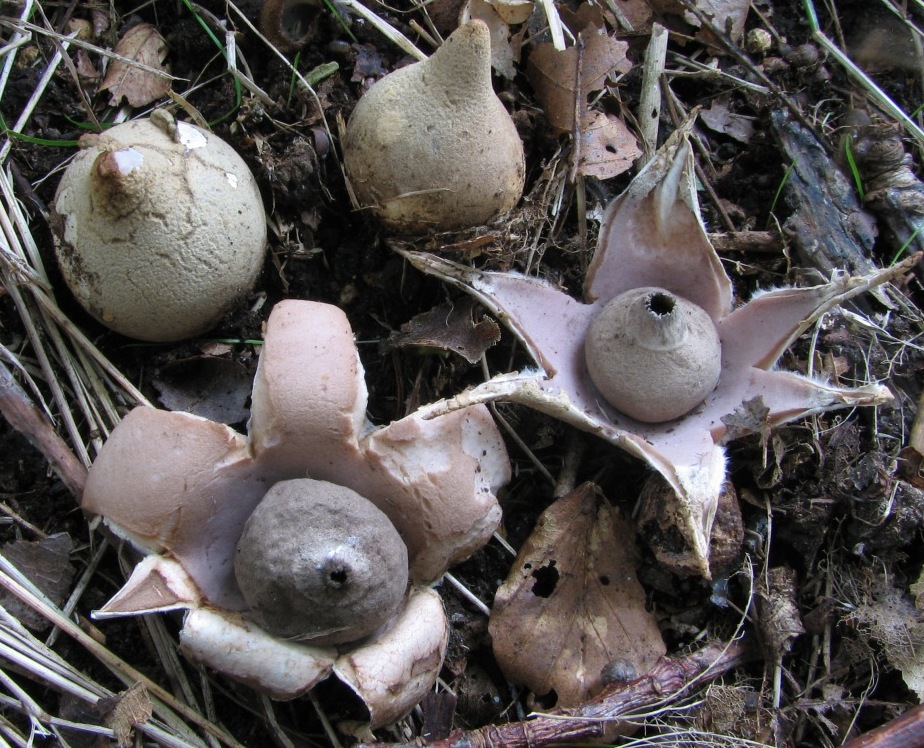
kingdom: Fungi
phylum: Basidiomycota
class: Agaricomycetes
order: Geastrales
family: Geastraceae
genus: Geastrum
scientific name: Geastrum saccatum
